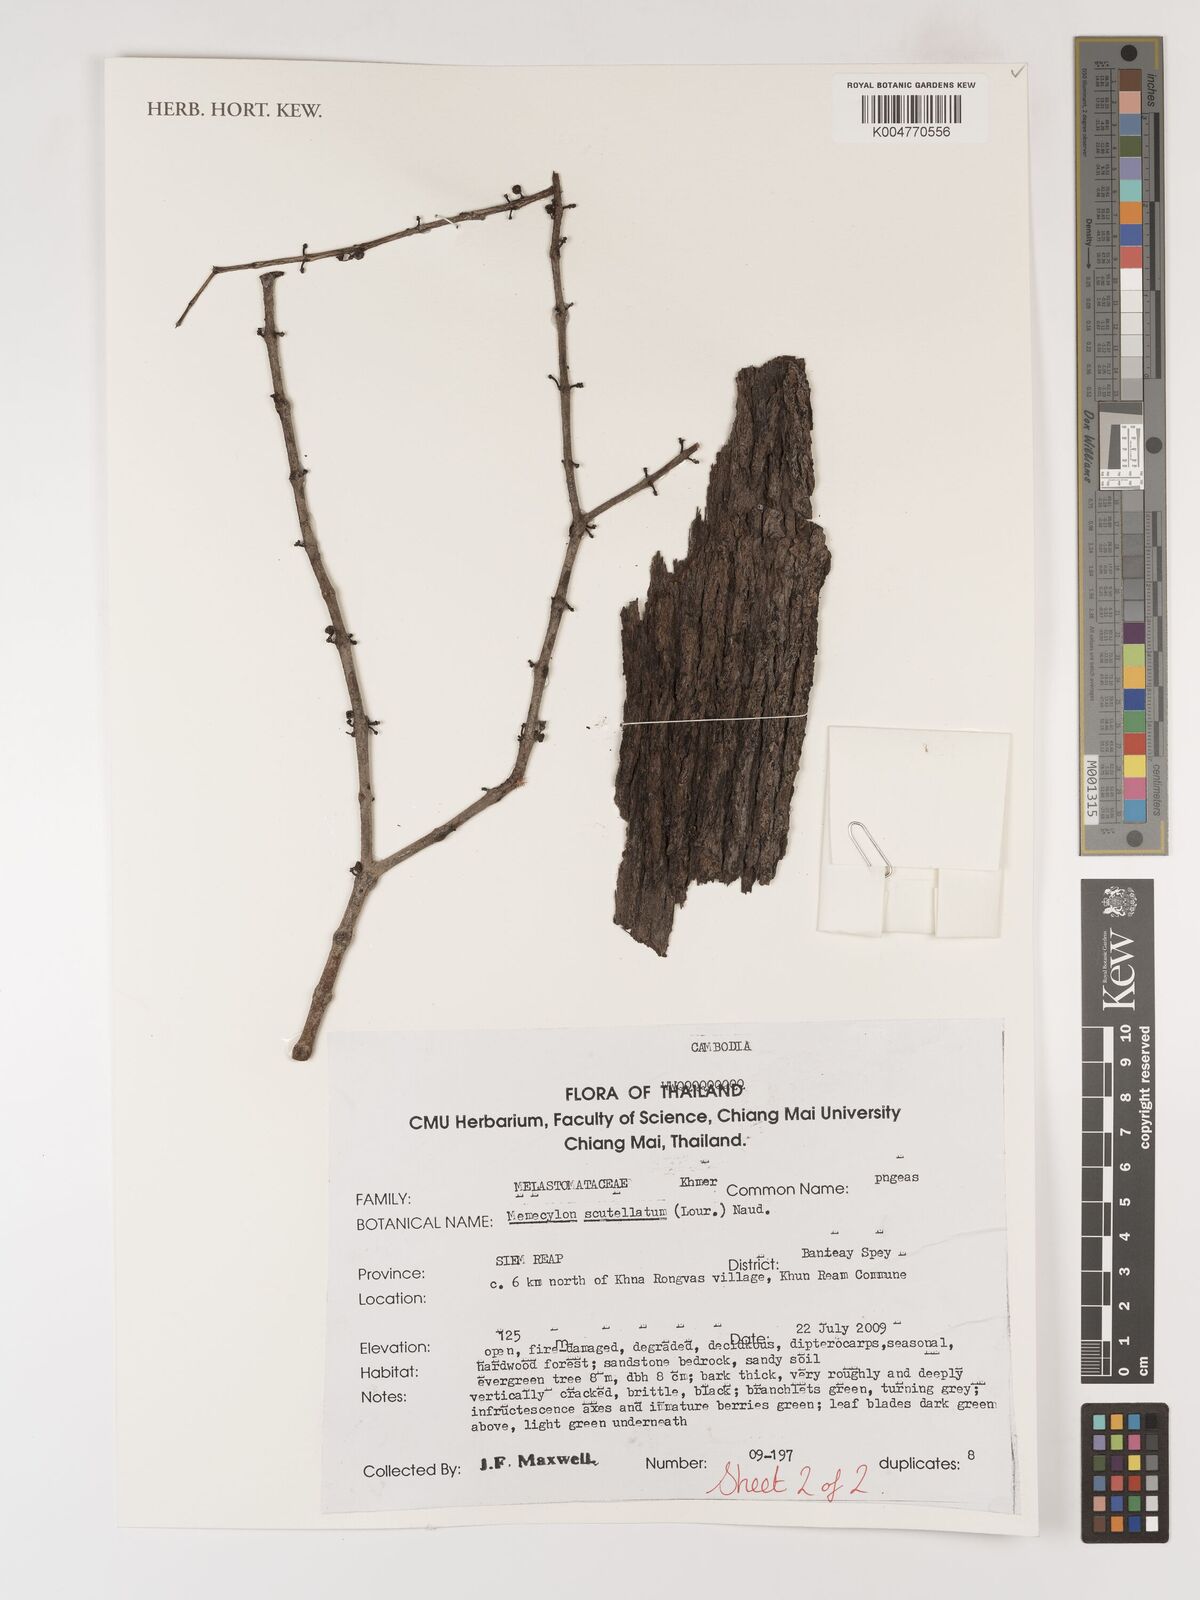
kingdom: Plantae
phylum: Tracheophyta
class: Magnoliopsida
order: Myrtales
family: Melastomataceae
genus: Memecylon
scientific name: Memecylon scutellatum
